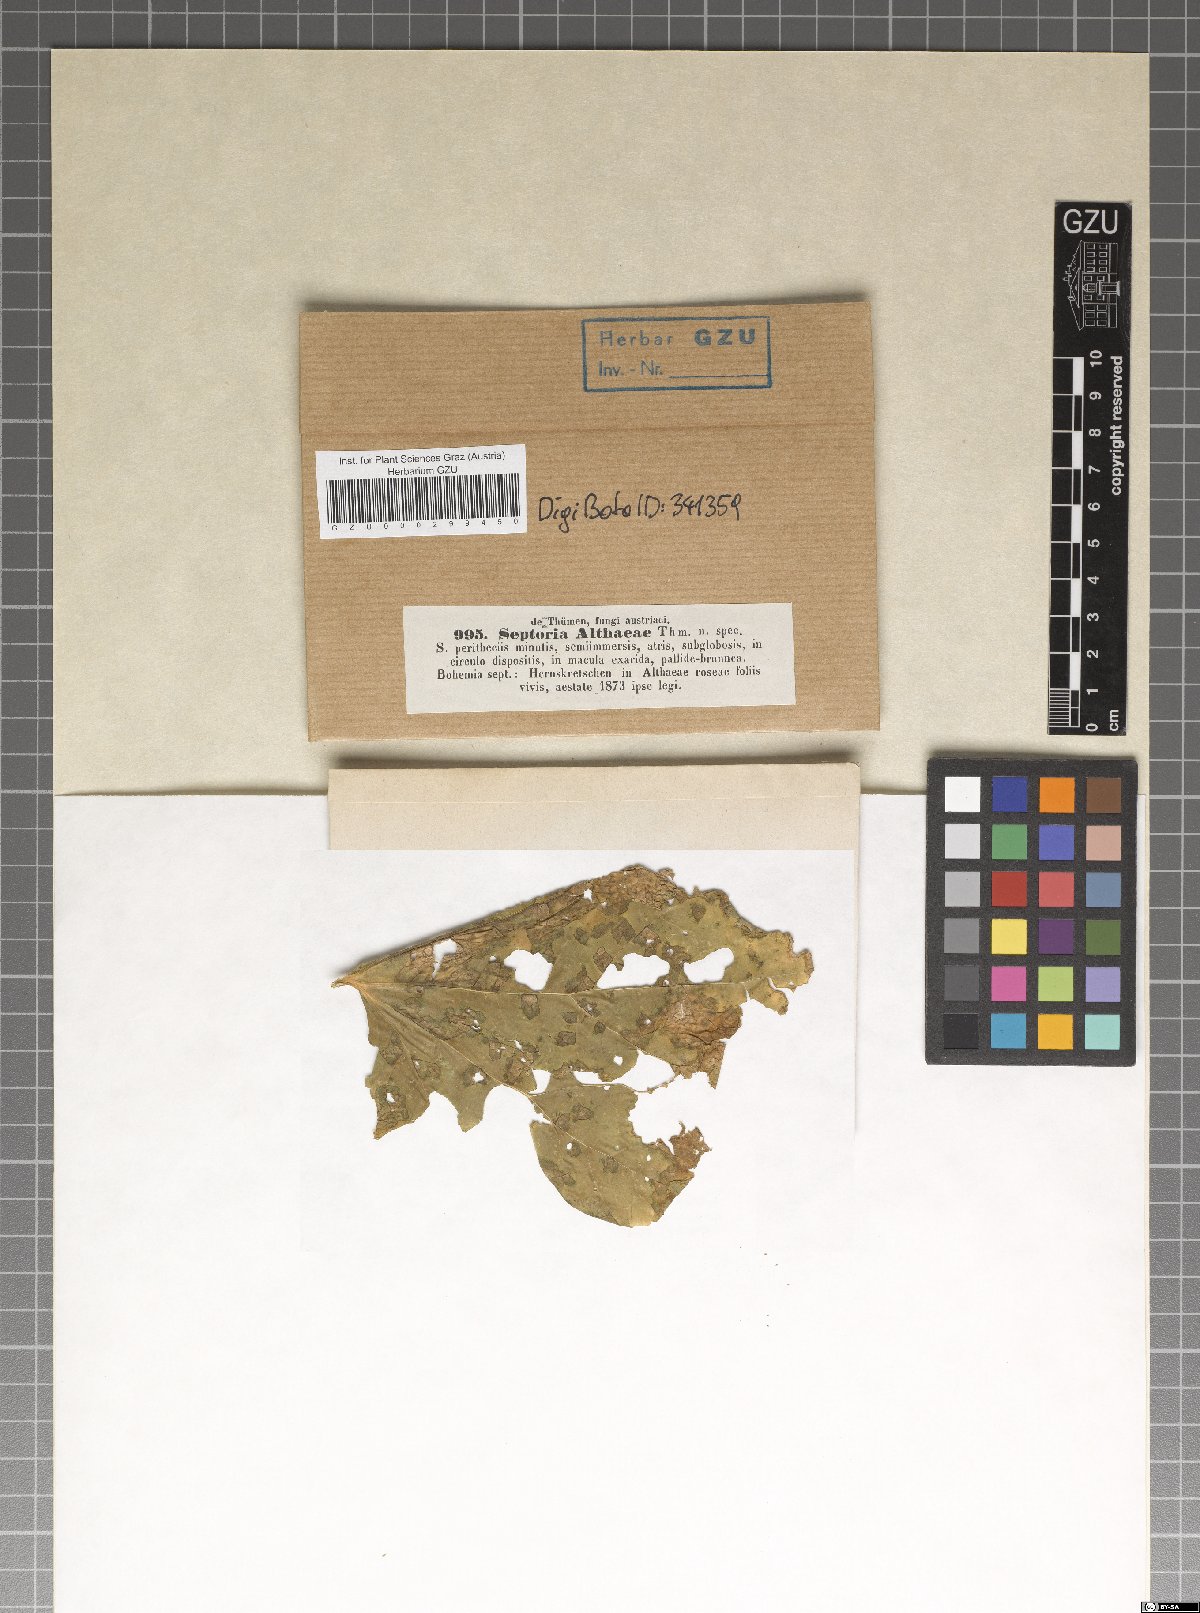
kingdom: Fungi
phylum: Ascomycota
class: Dothideomycetes
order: Mycosphaerellales
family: Mycosphaerellaceae
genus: Septoria
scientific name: Septoria bunkinae
